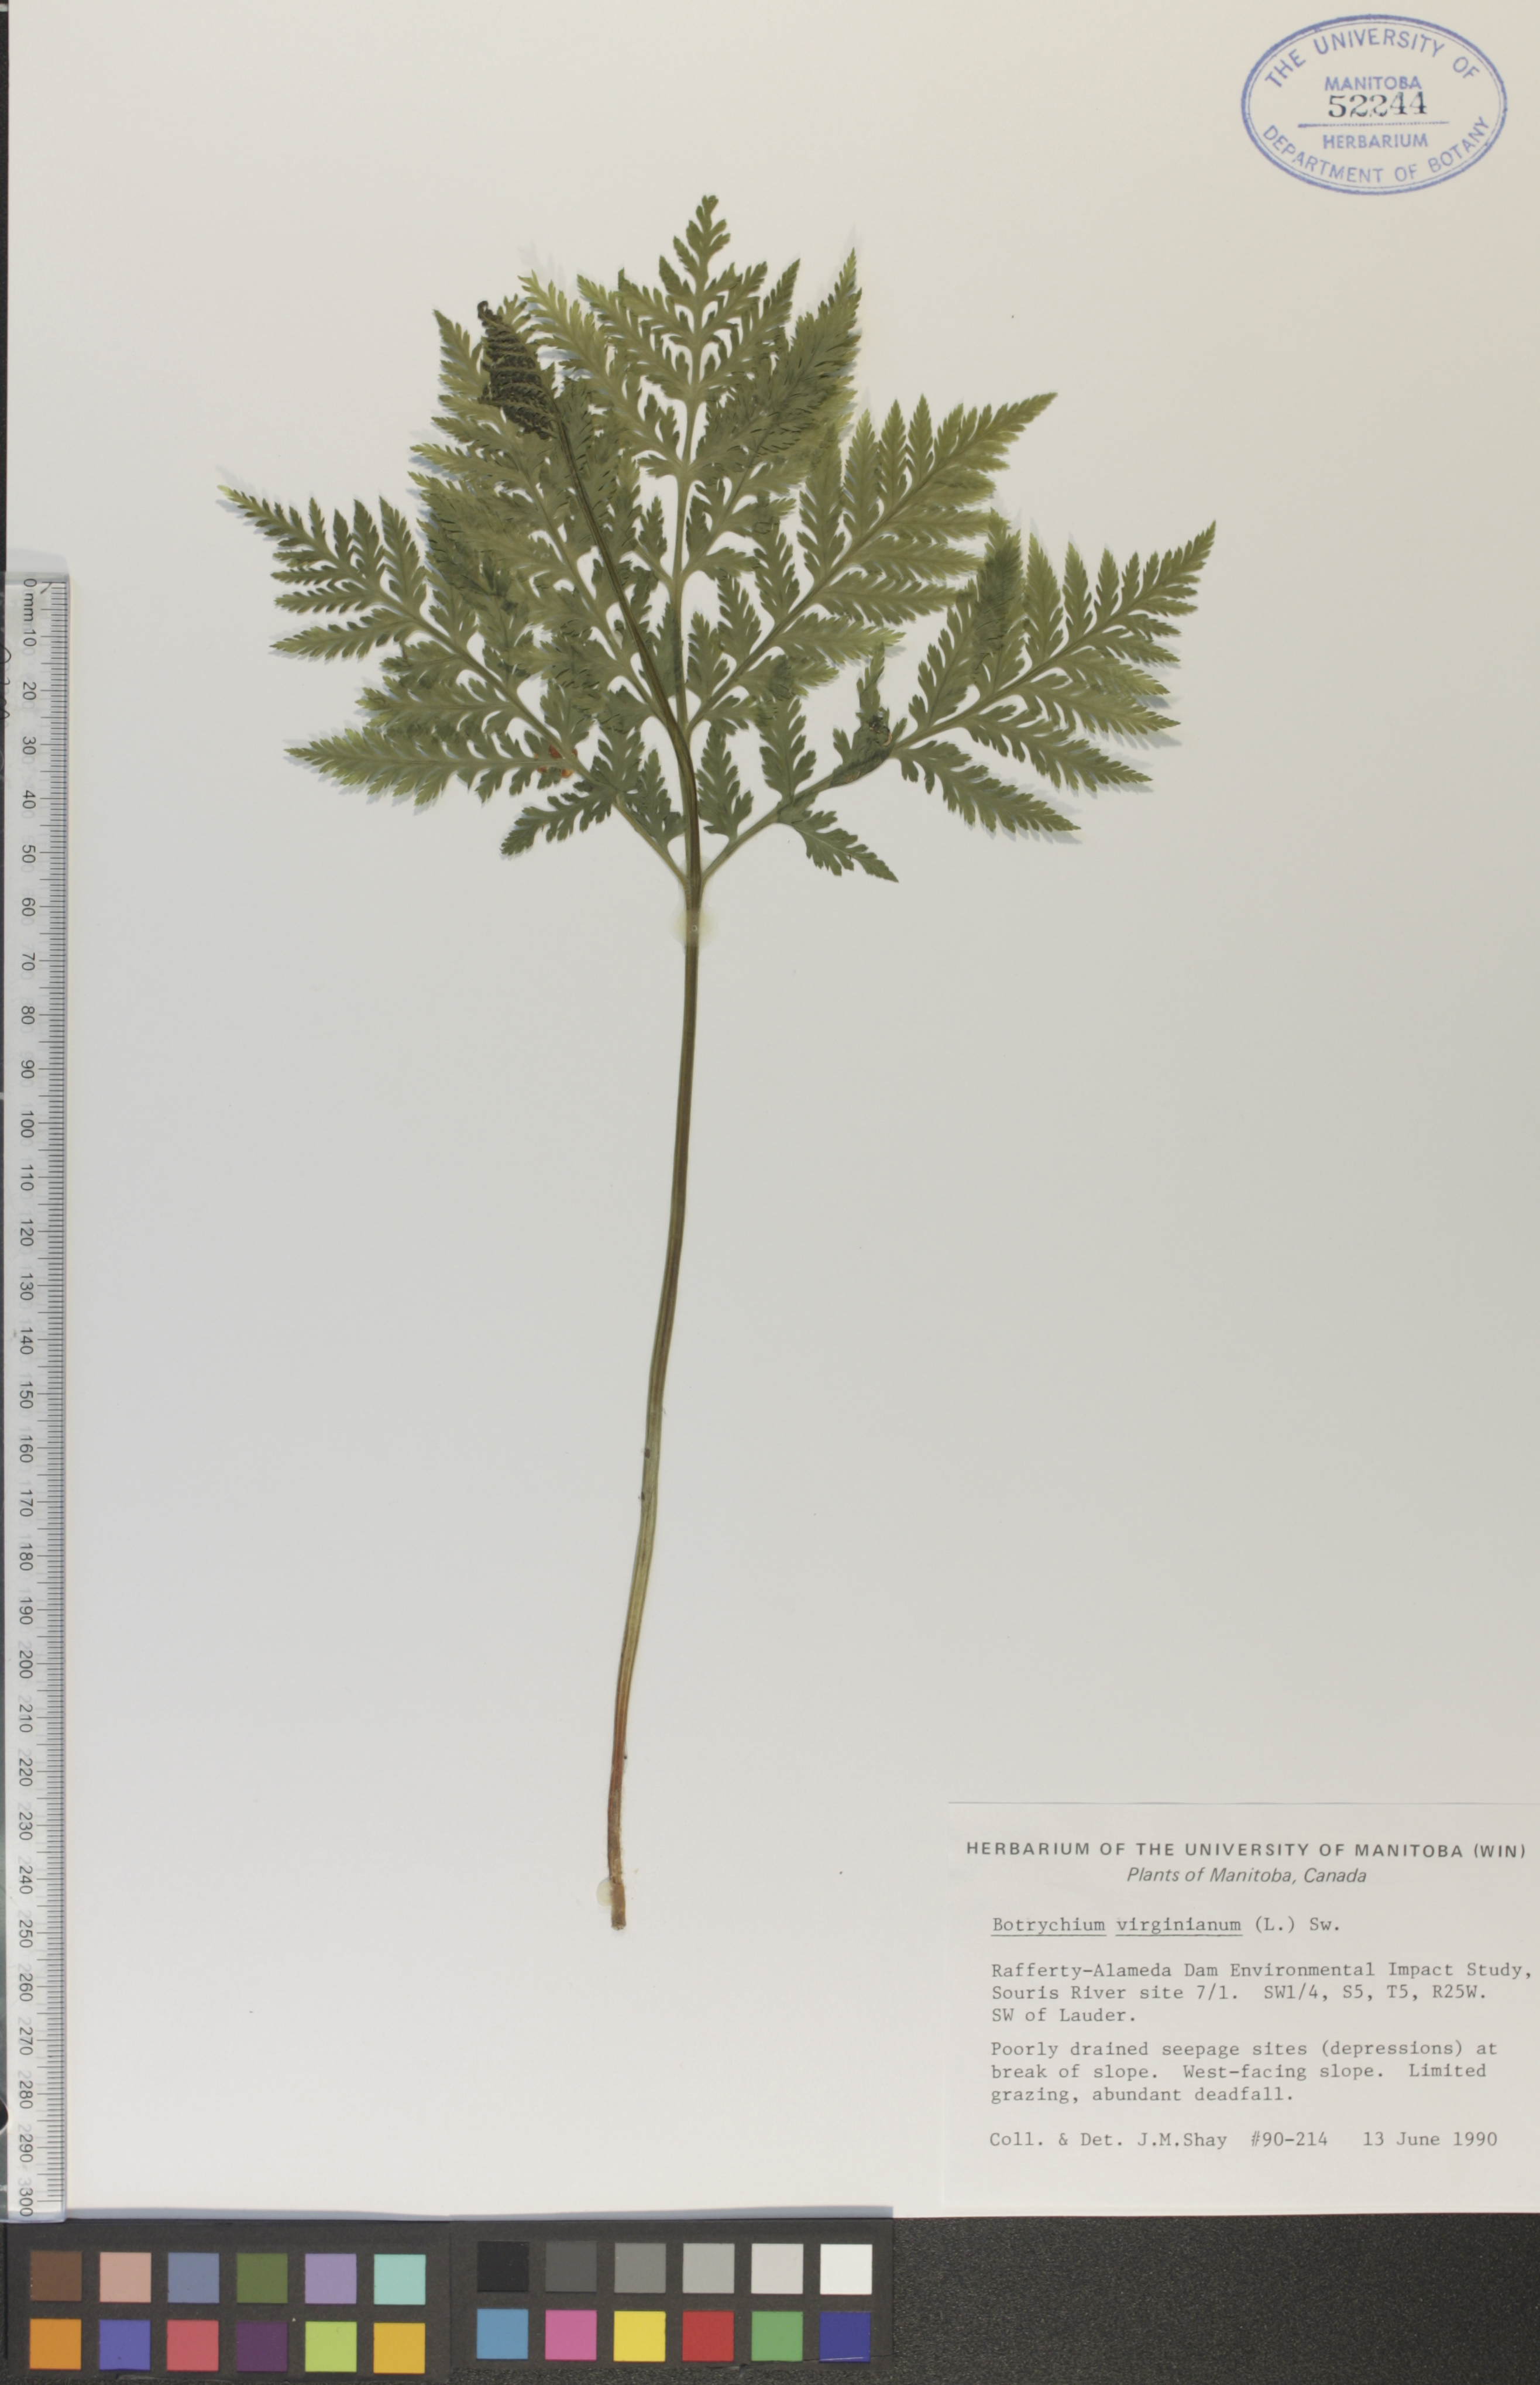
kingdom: Plantae
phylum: Tracheophyta
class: Polypodiopsida
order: Ophioglossales
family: Ophioglossaceae
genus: Botrypus
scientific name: Botrypus virginianus
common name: Common grapefern
